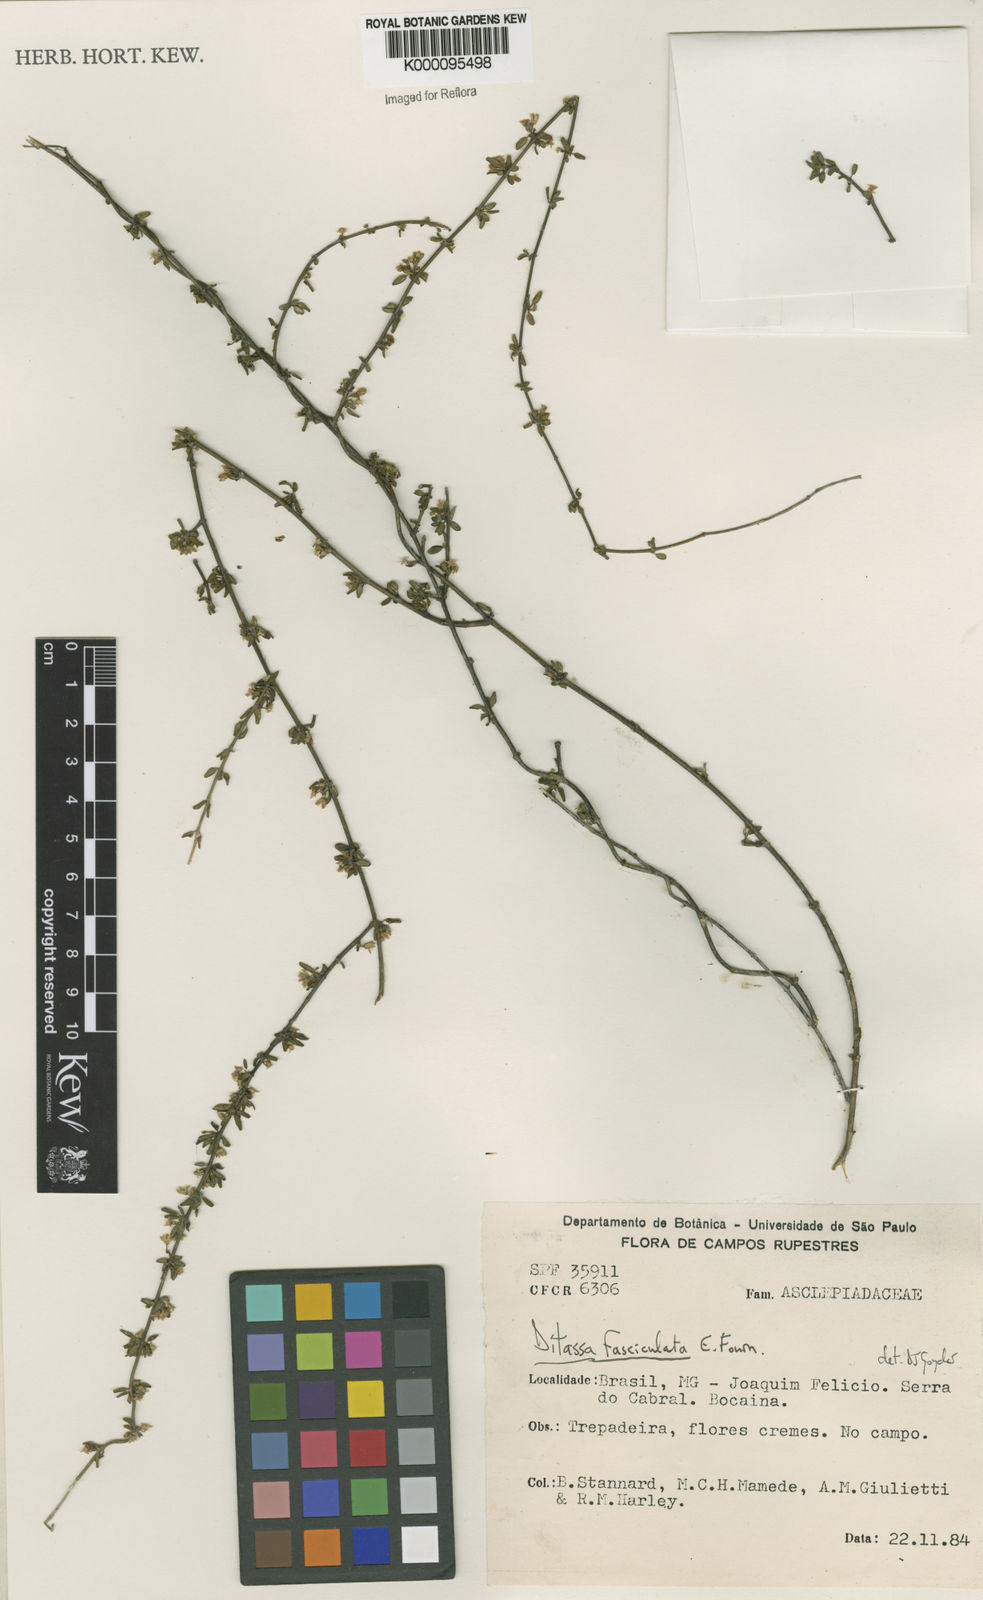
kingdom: Plantae
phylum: Tracheophyta
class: Magnoliopsida
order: Gentianales
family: Apocynaceae
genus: Ditassa
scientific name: Ditassa fasciculata
